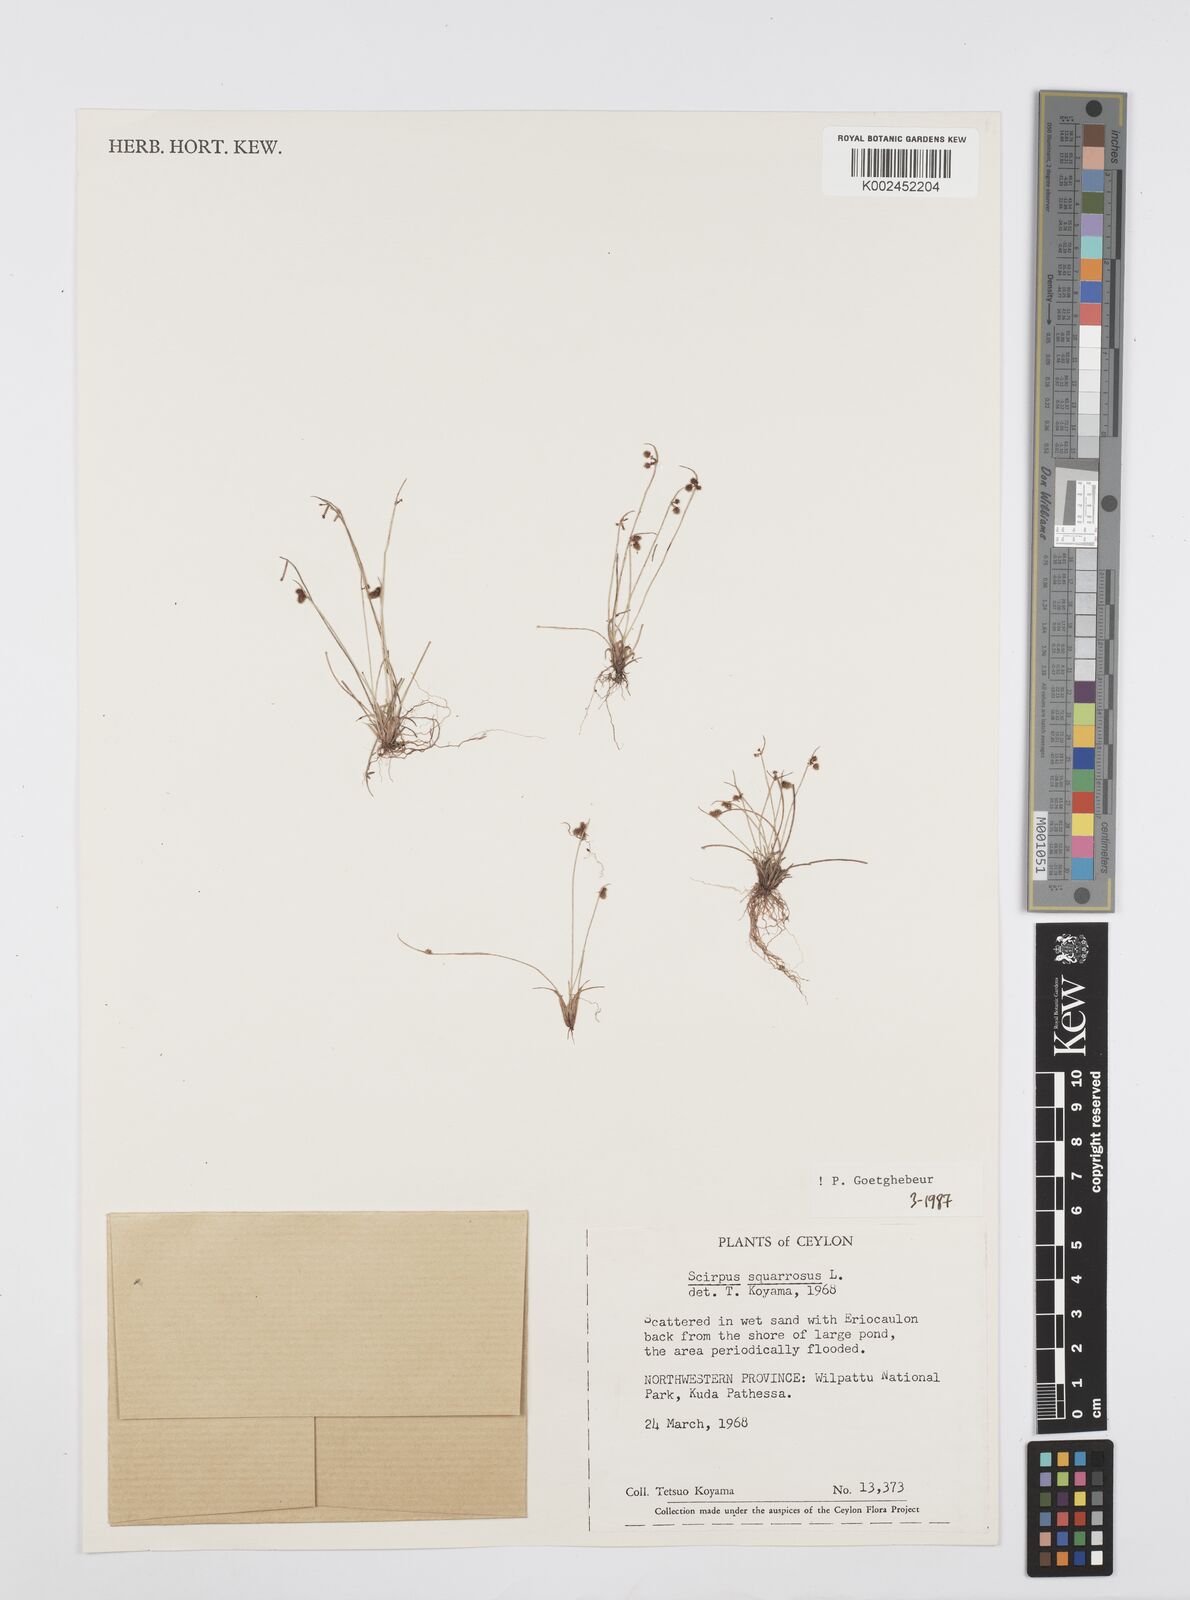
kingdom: Plantae
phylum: Tracheophyta
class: Liliopsida
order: Poales
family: Cyperaceae
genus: Cyperus
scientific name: Cyperus squarrosus
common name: Awned cyperus
